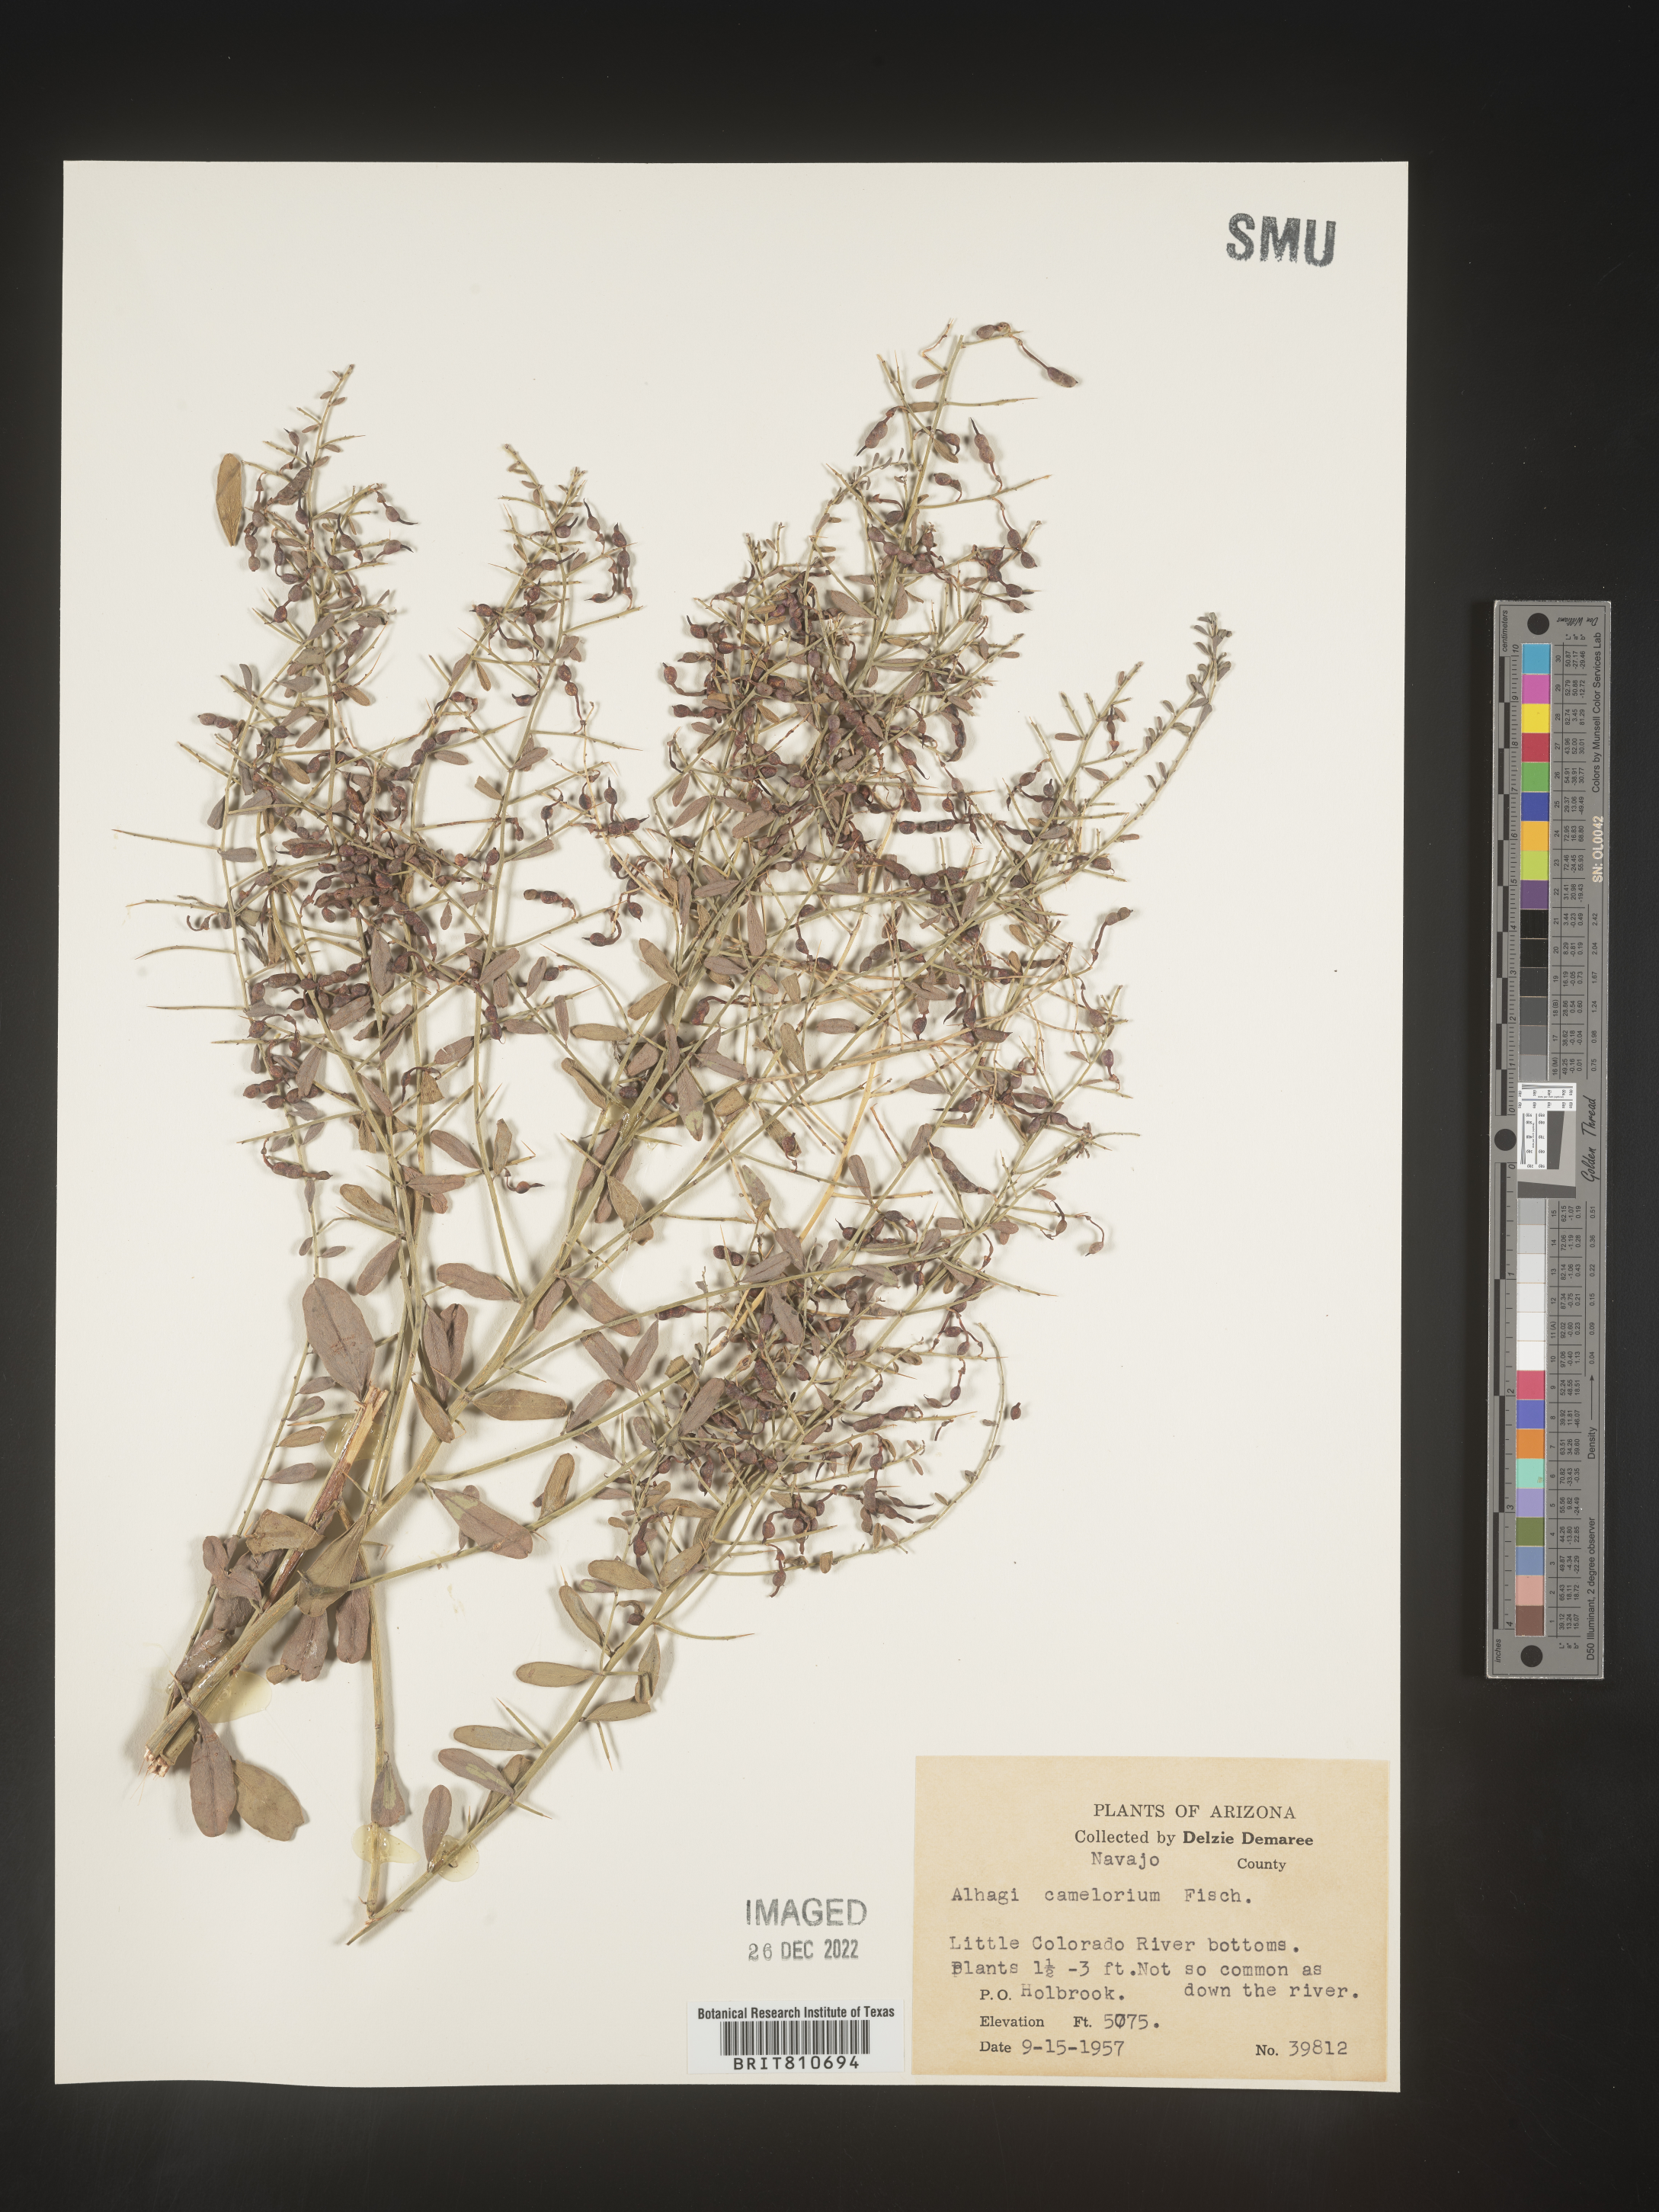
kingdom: Plantae
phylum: Tracheophyta
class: Magnoliopsida
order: Fabales
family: Fabaceae
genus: Alhagi
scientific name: Alhagi
